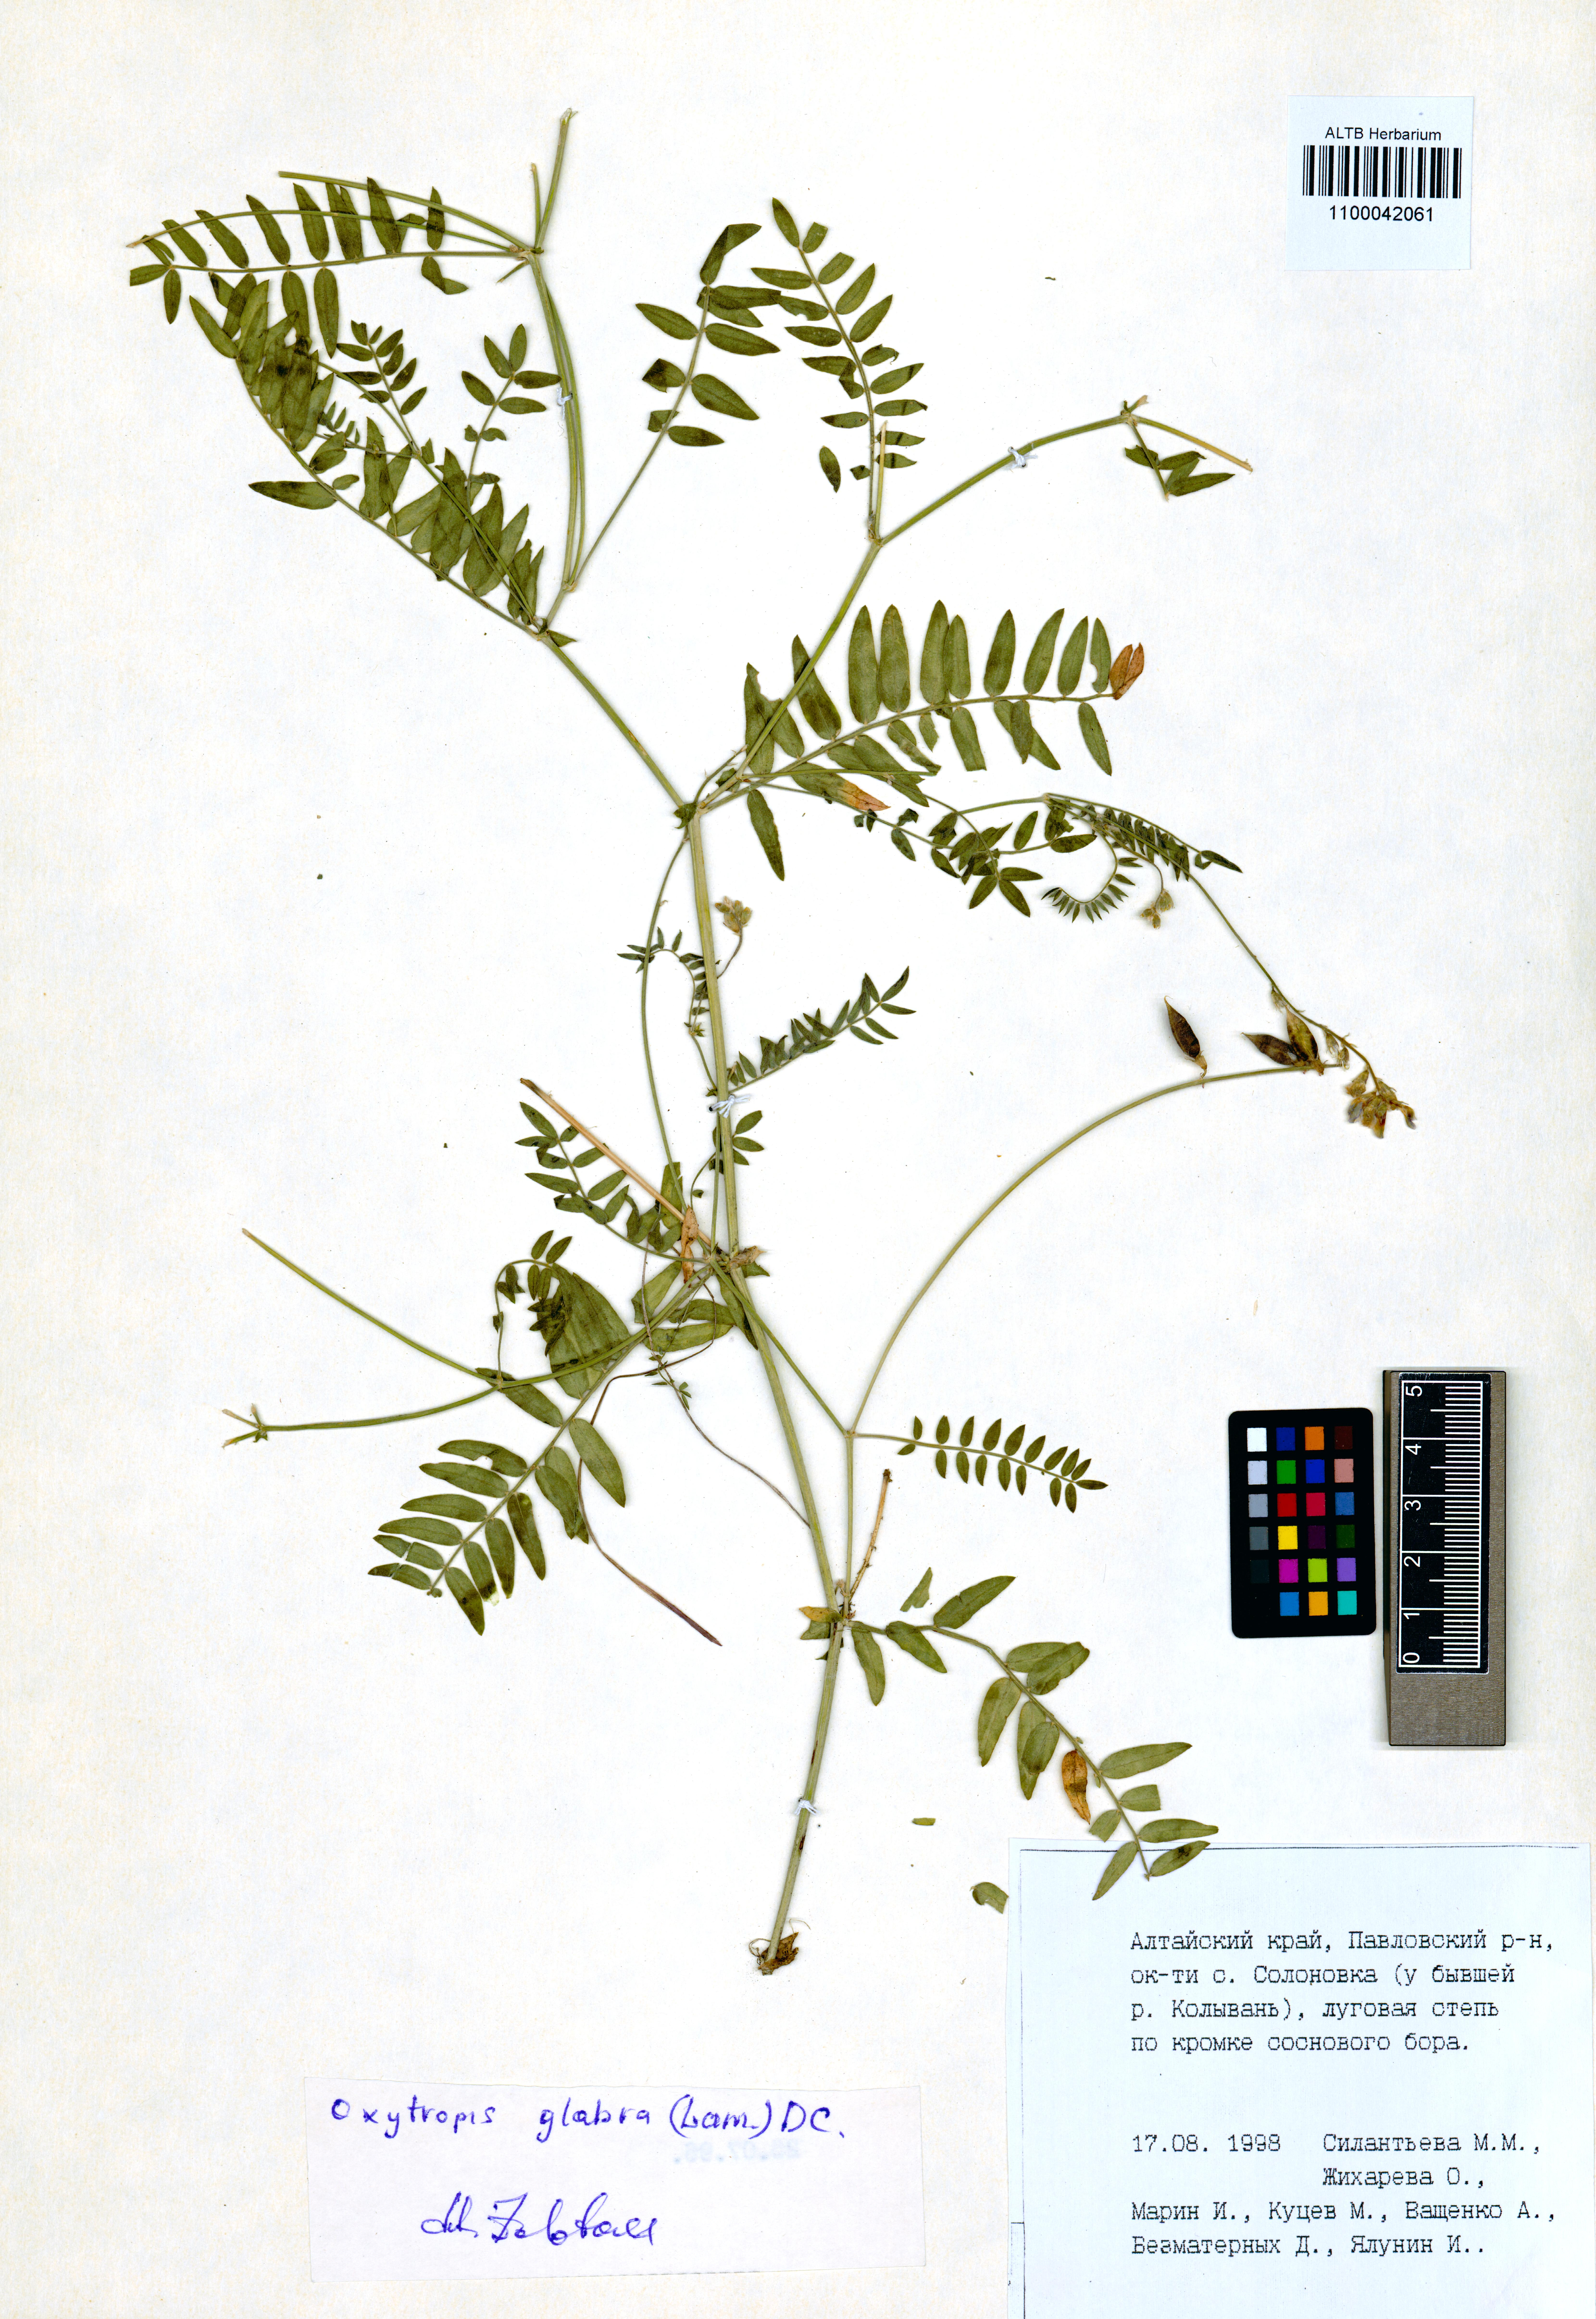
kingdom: Plantae
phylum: Tracheophyta
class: Magnoliopsida
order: Fabales
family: Fabaceae
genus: Oxytropis
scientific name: Oxytropis glabra
